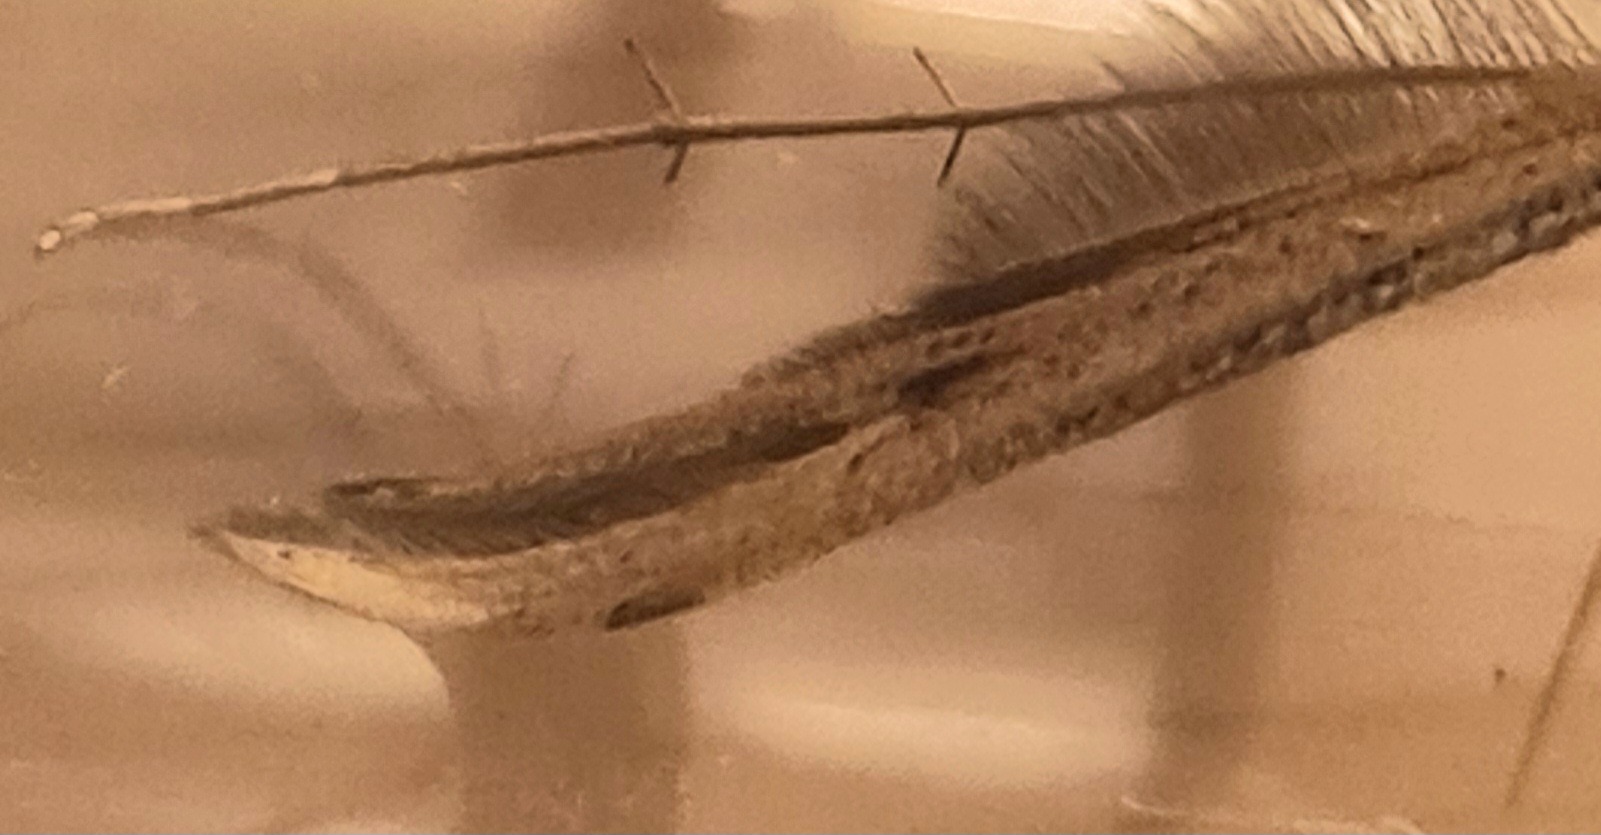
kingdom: Animalia
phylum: Arthropoda
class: Insecta
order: Lepidoptera
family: Pterophoridae
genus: Emmelina
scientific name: Emmelina monodactyla
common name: Snerlefjermøl
